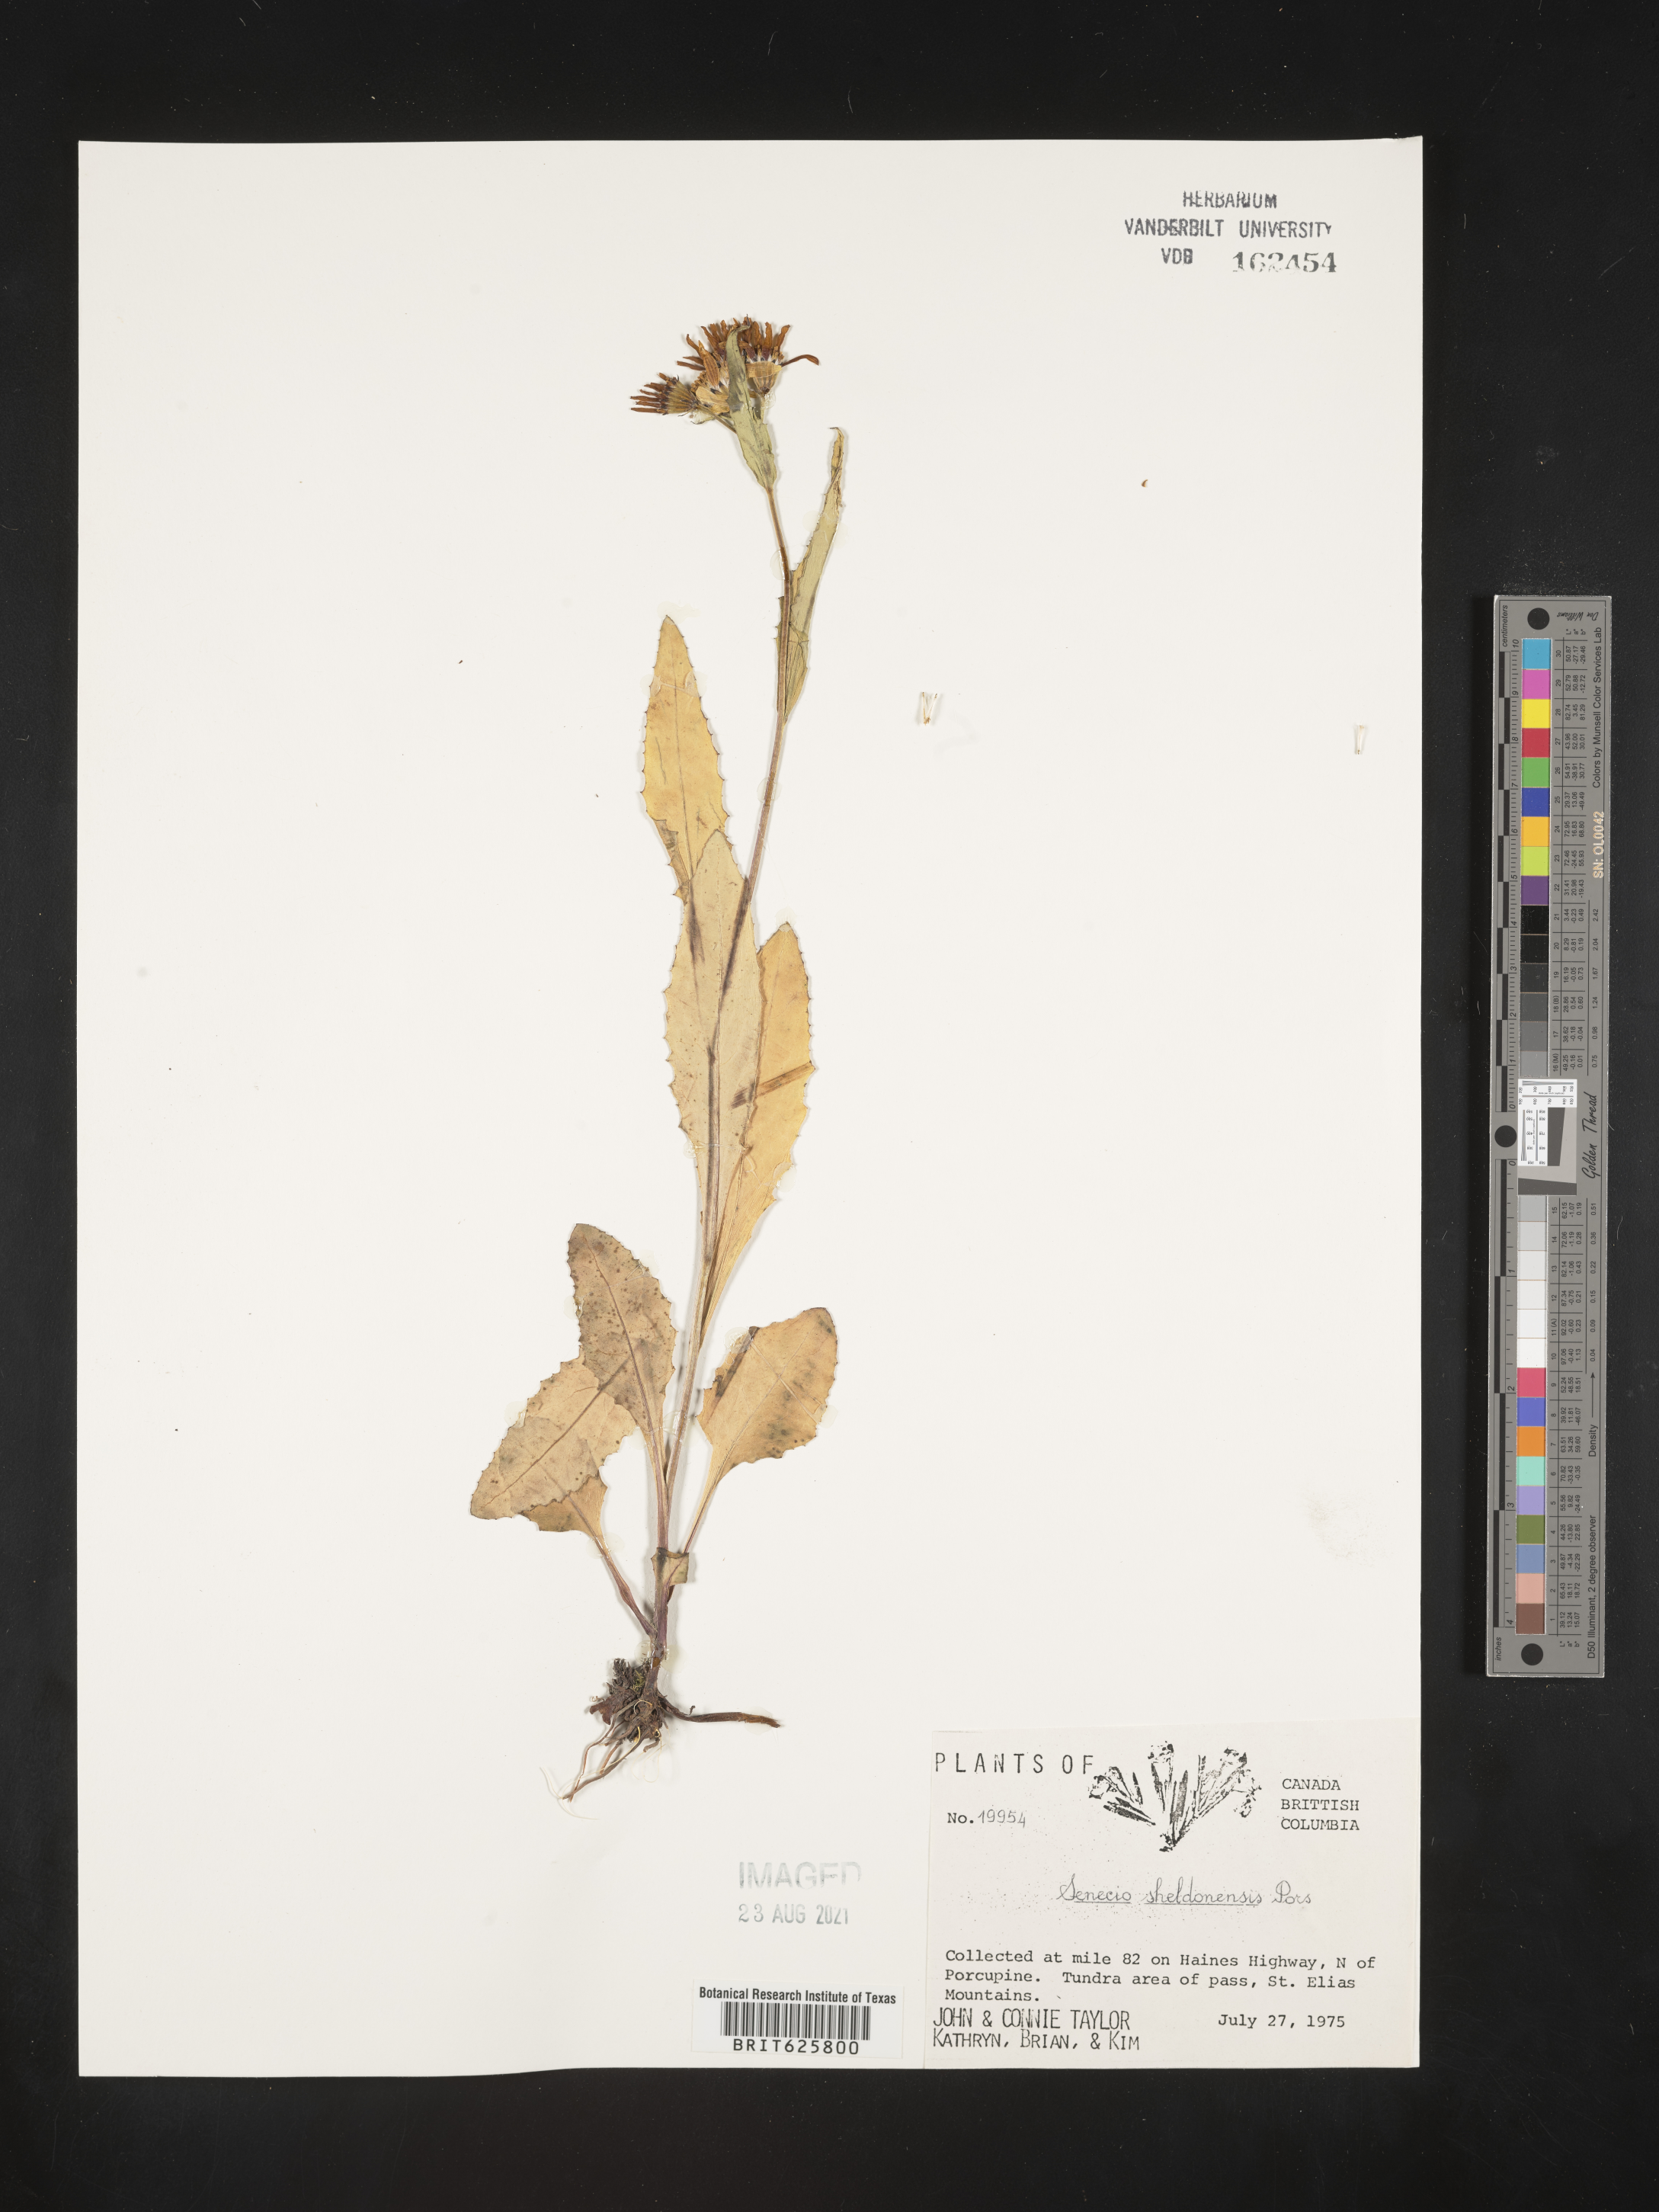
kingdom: Plantae
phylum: Tracheophyta
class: Magnoliopsida
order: Asterales
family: Asteraceae
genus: Senecio
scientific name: Senecio sheldonensis
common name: Mount sheldon butterweed
